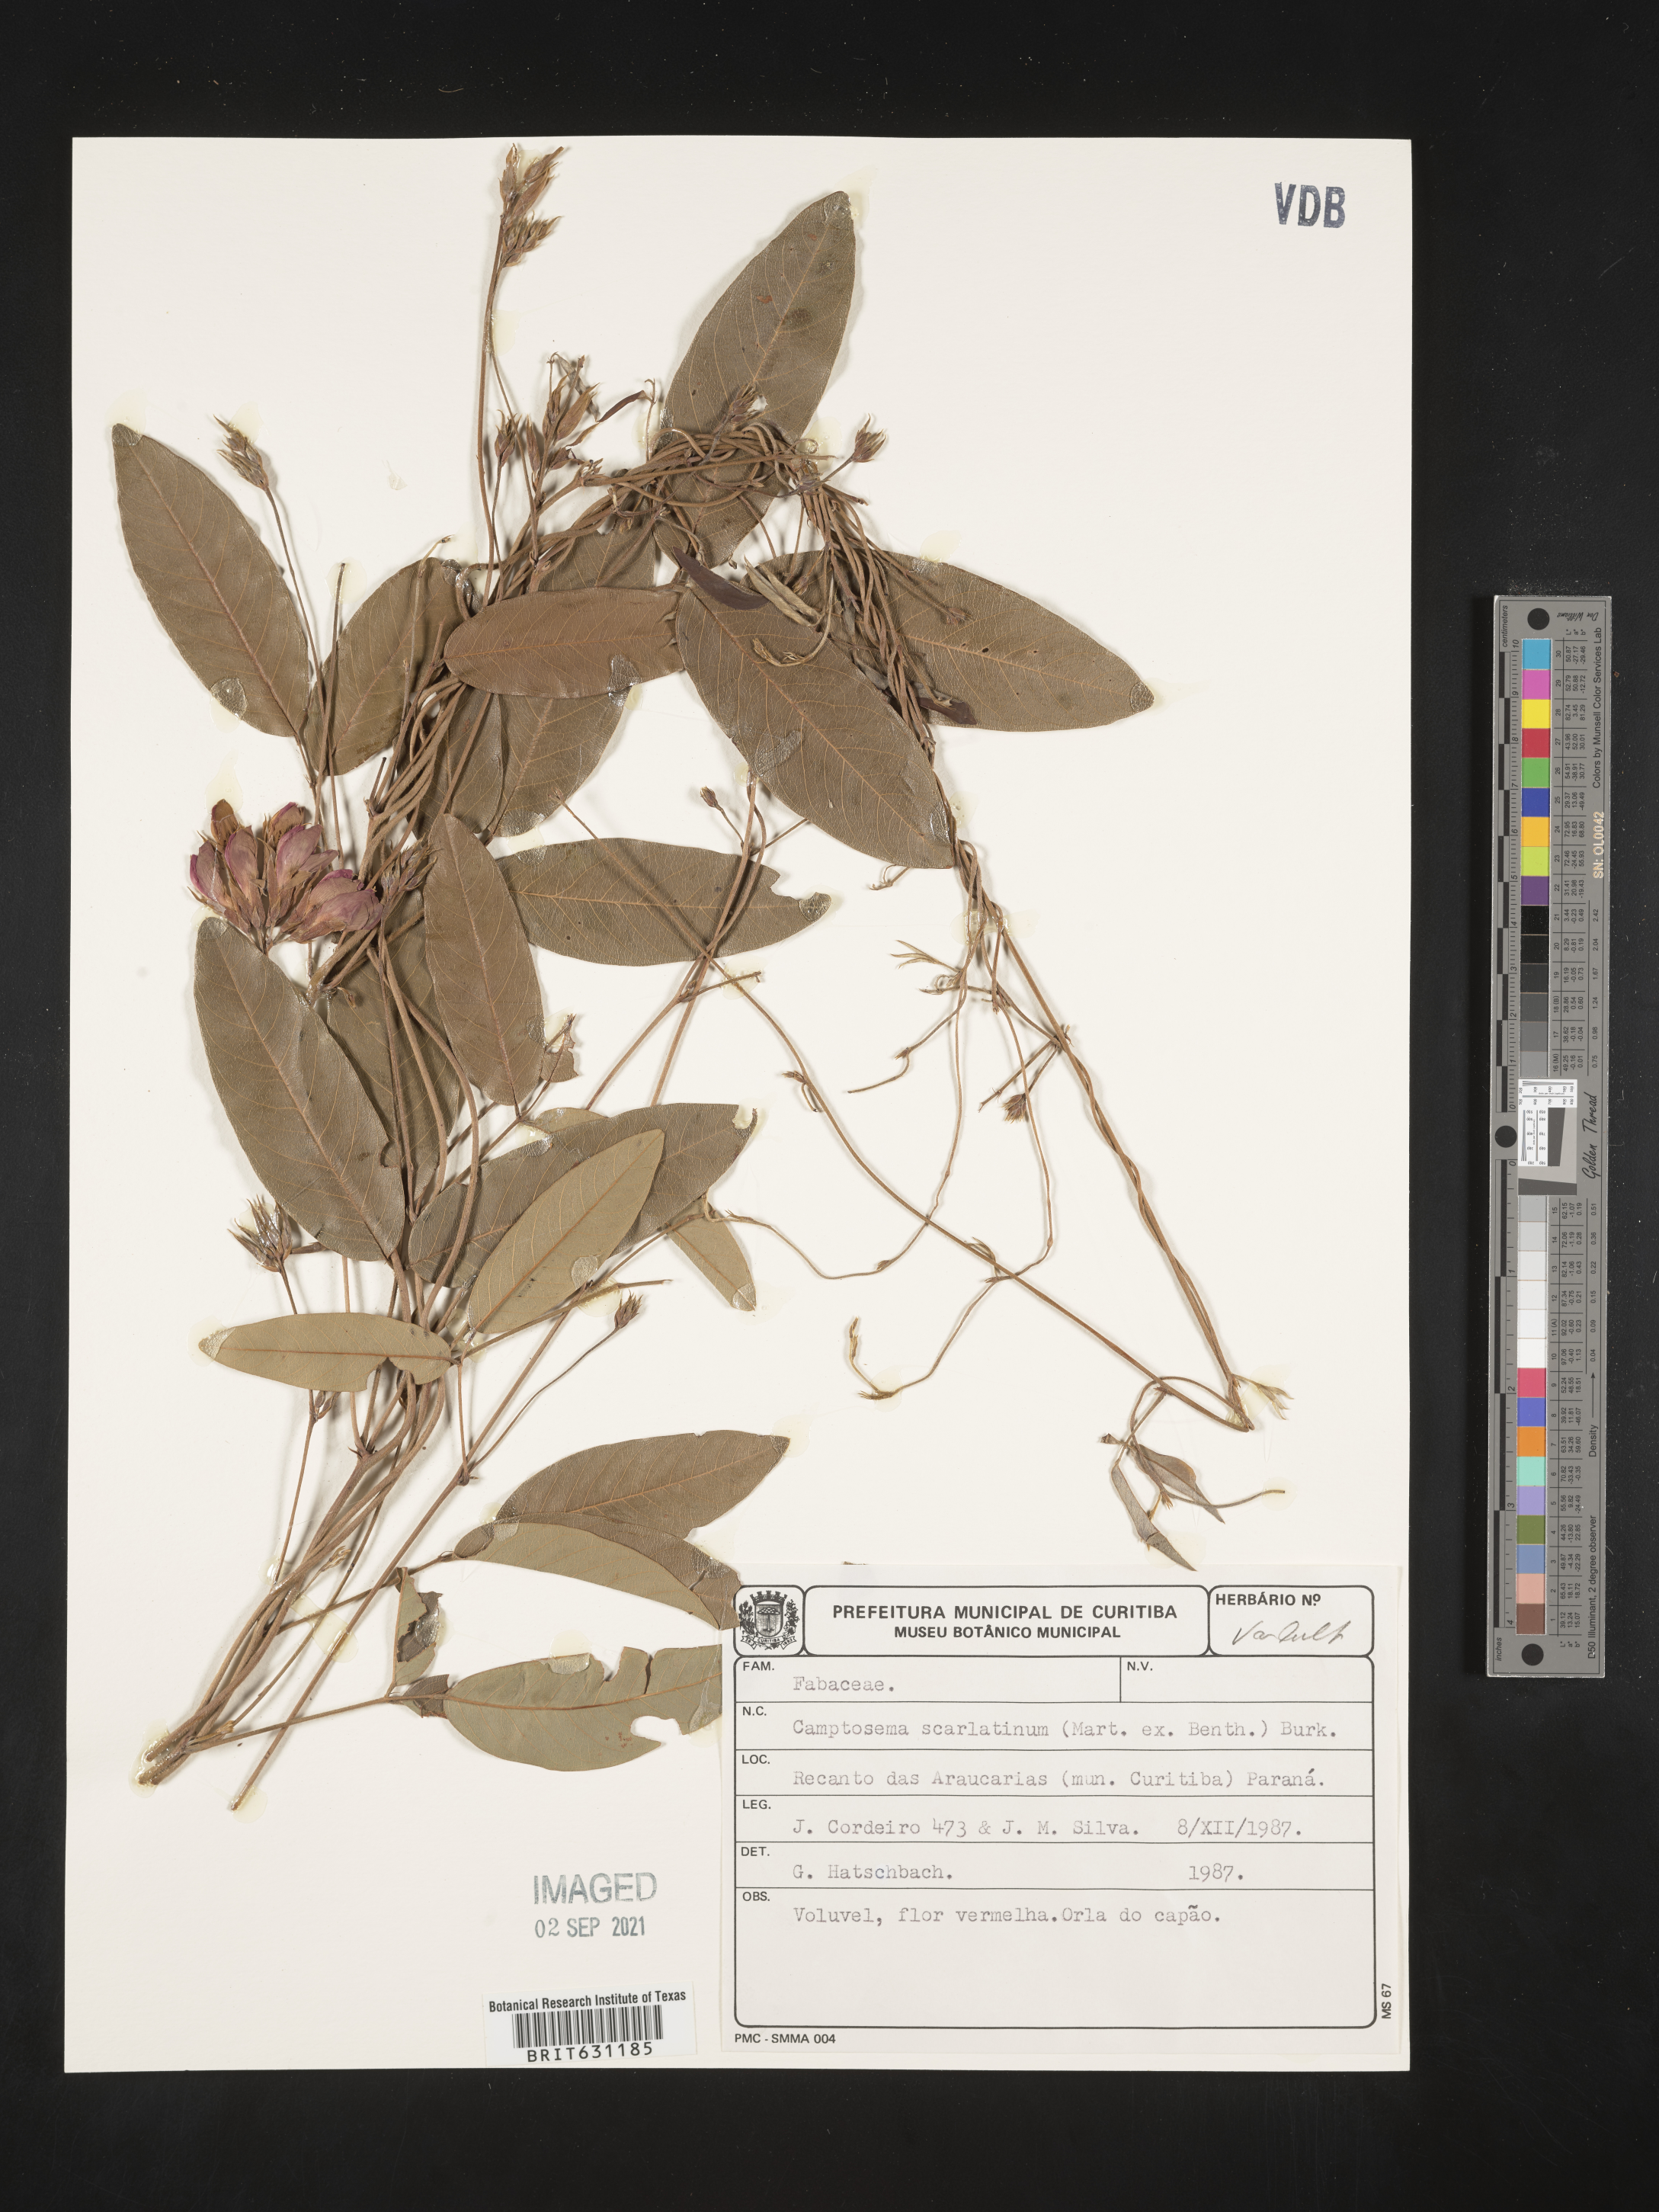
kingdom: Plantae
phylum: Tracheophyta
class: Magnoliopsida
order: Fabales
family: Fabaceae
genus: Betencourtia
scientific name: Betencourtia scarlatina
